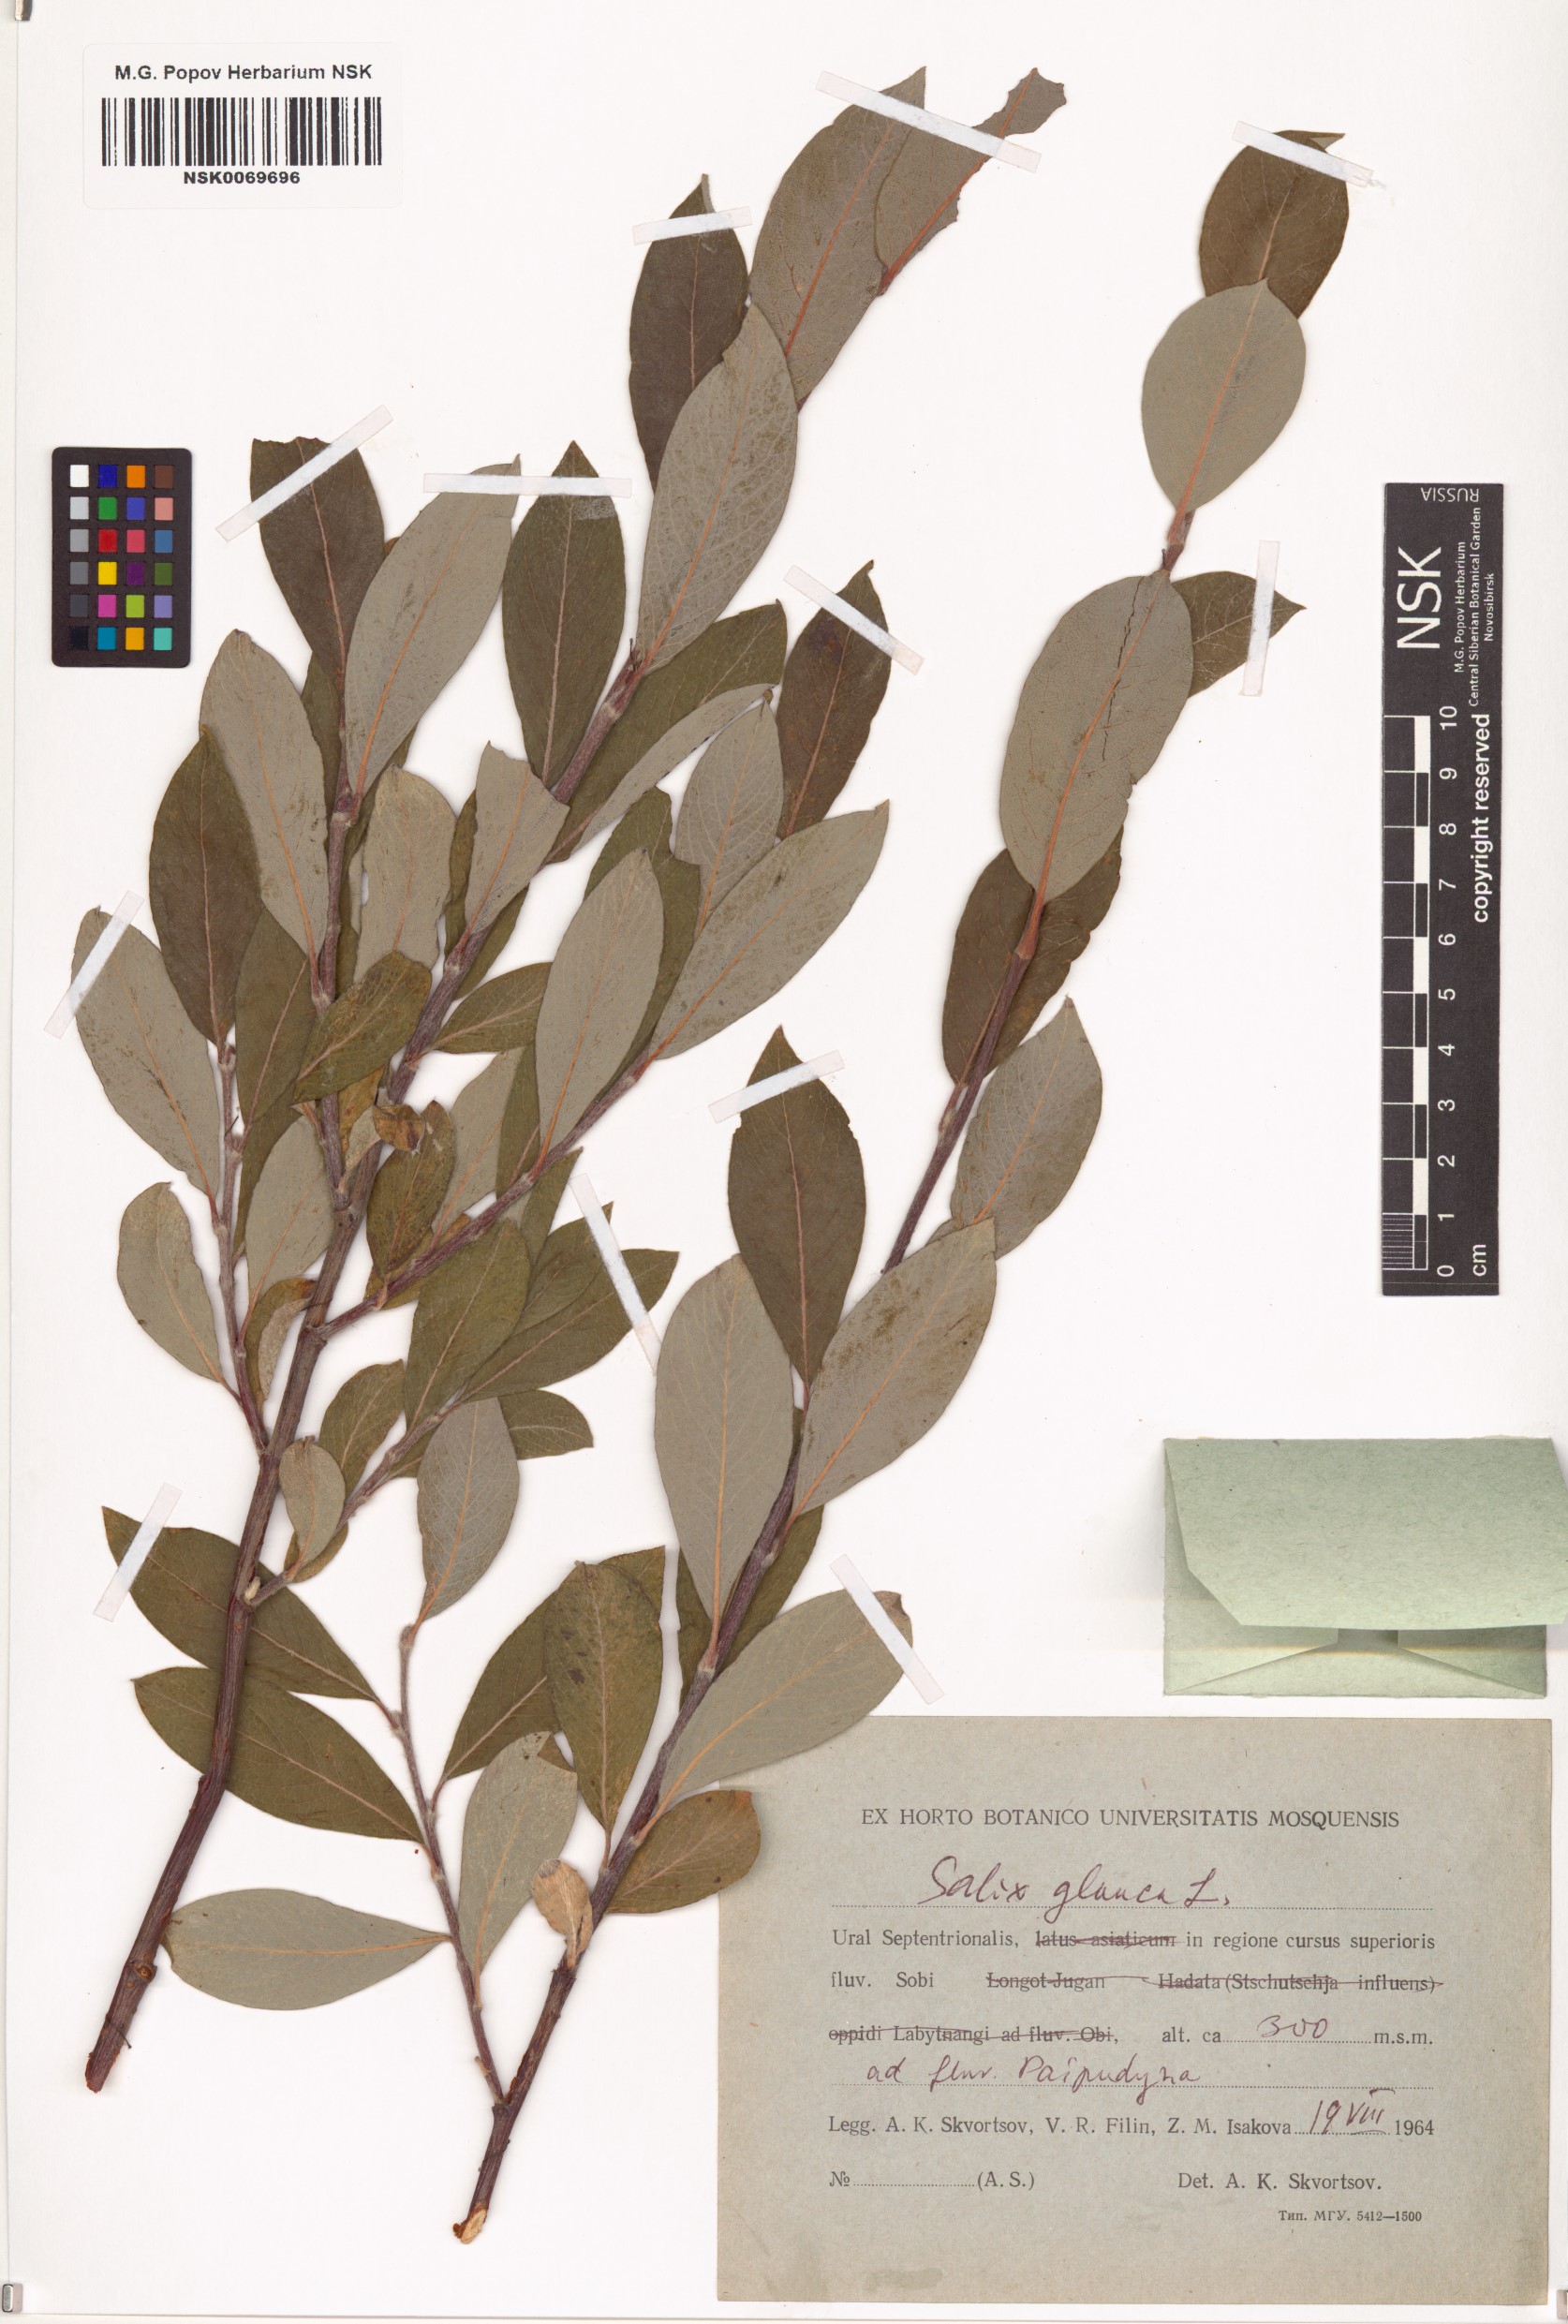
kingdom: Plantae
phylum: Tracheophyta
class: Magnoliopsida
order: Malpighiales
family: Salicaceae
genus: Salix
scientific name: Salix glauca
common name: Glaucous willow
